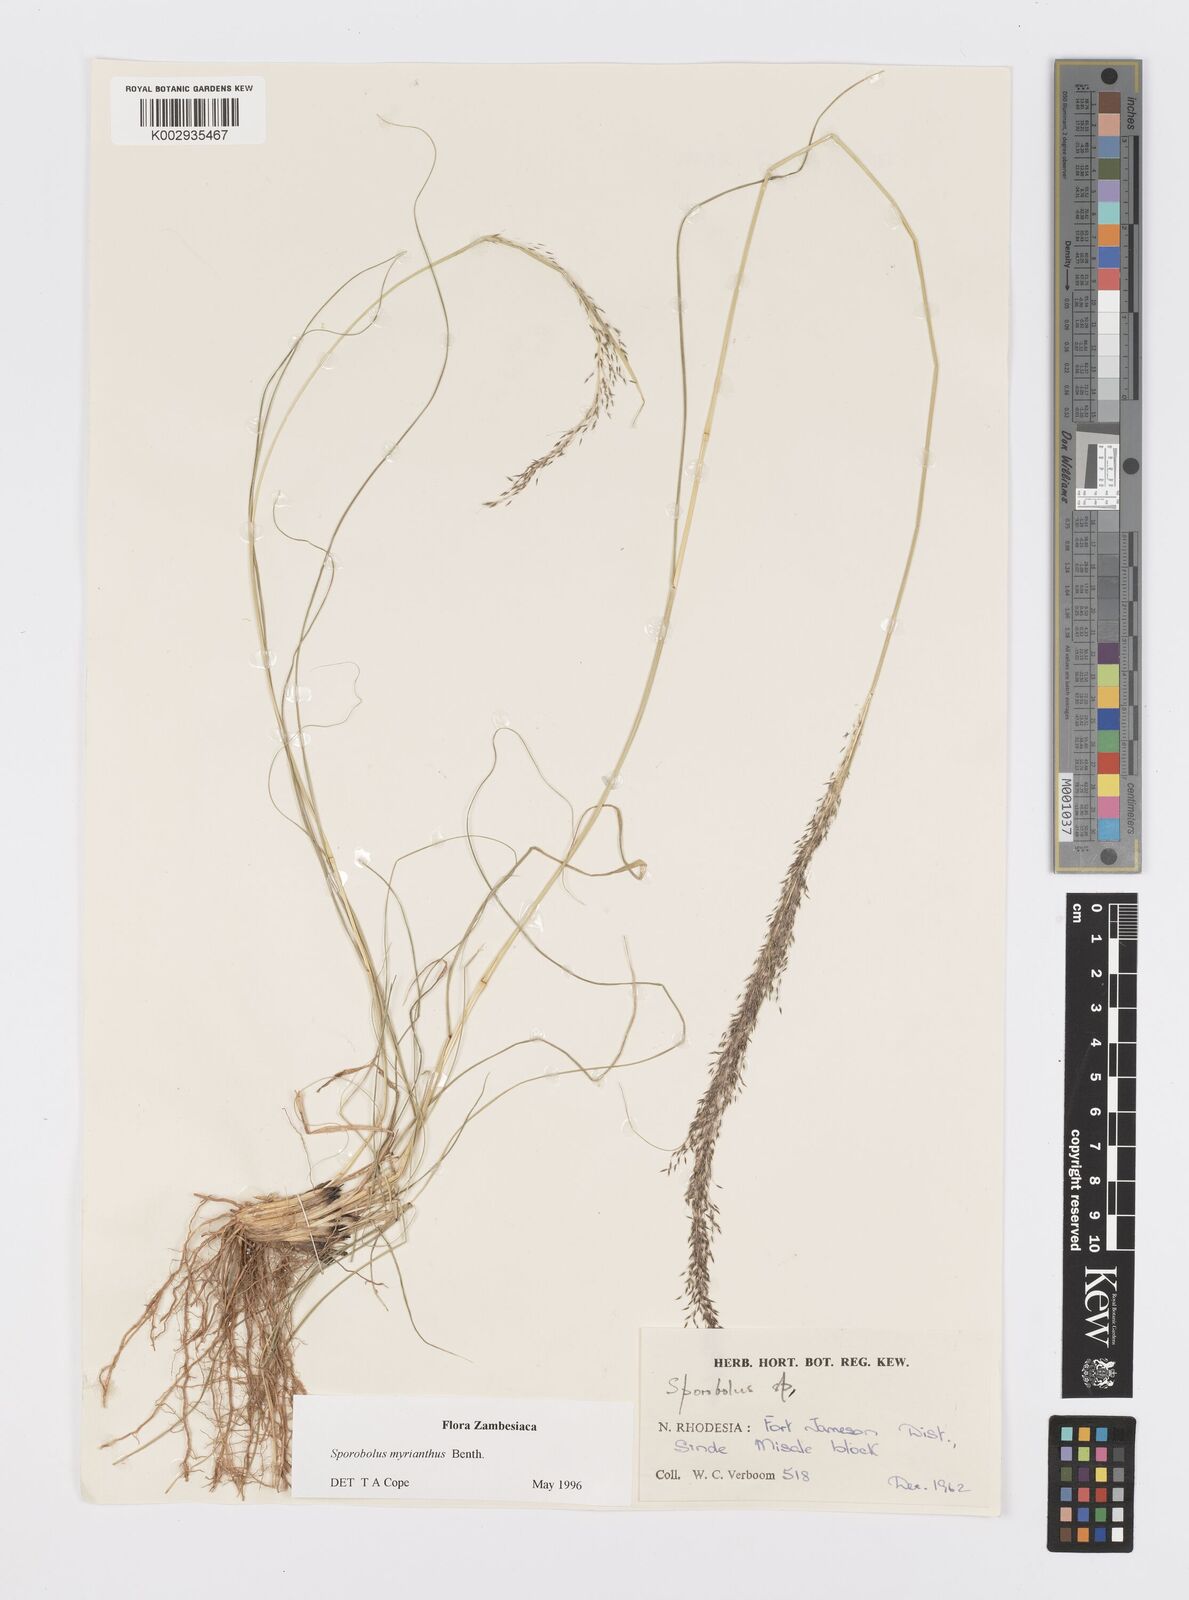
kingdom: Plantae
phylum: Tracheophyta
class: Liliopsida
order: Poales
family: Poaceae
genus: Sporobolus
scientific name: Sporobolus myrianthus
